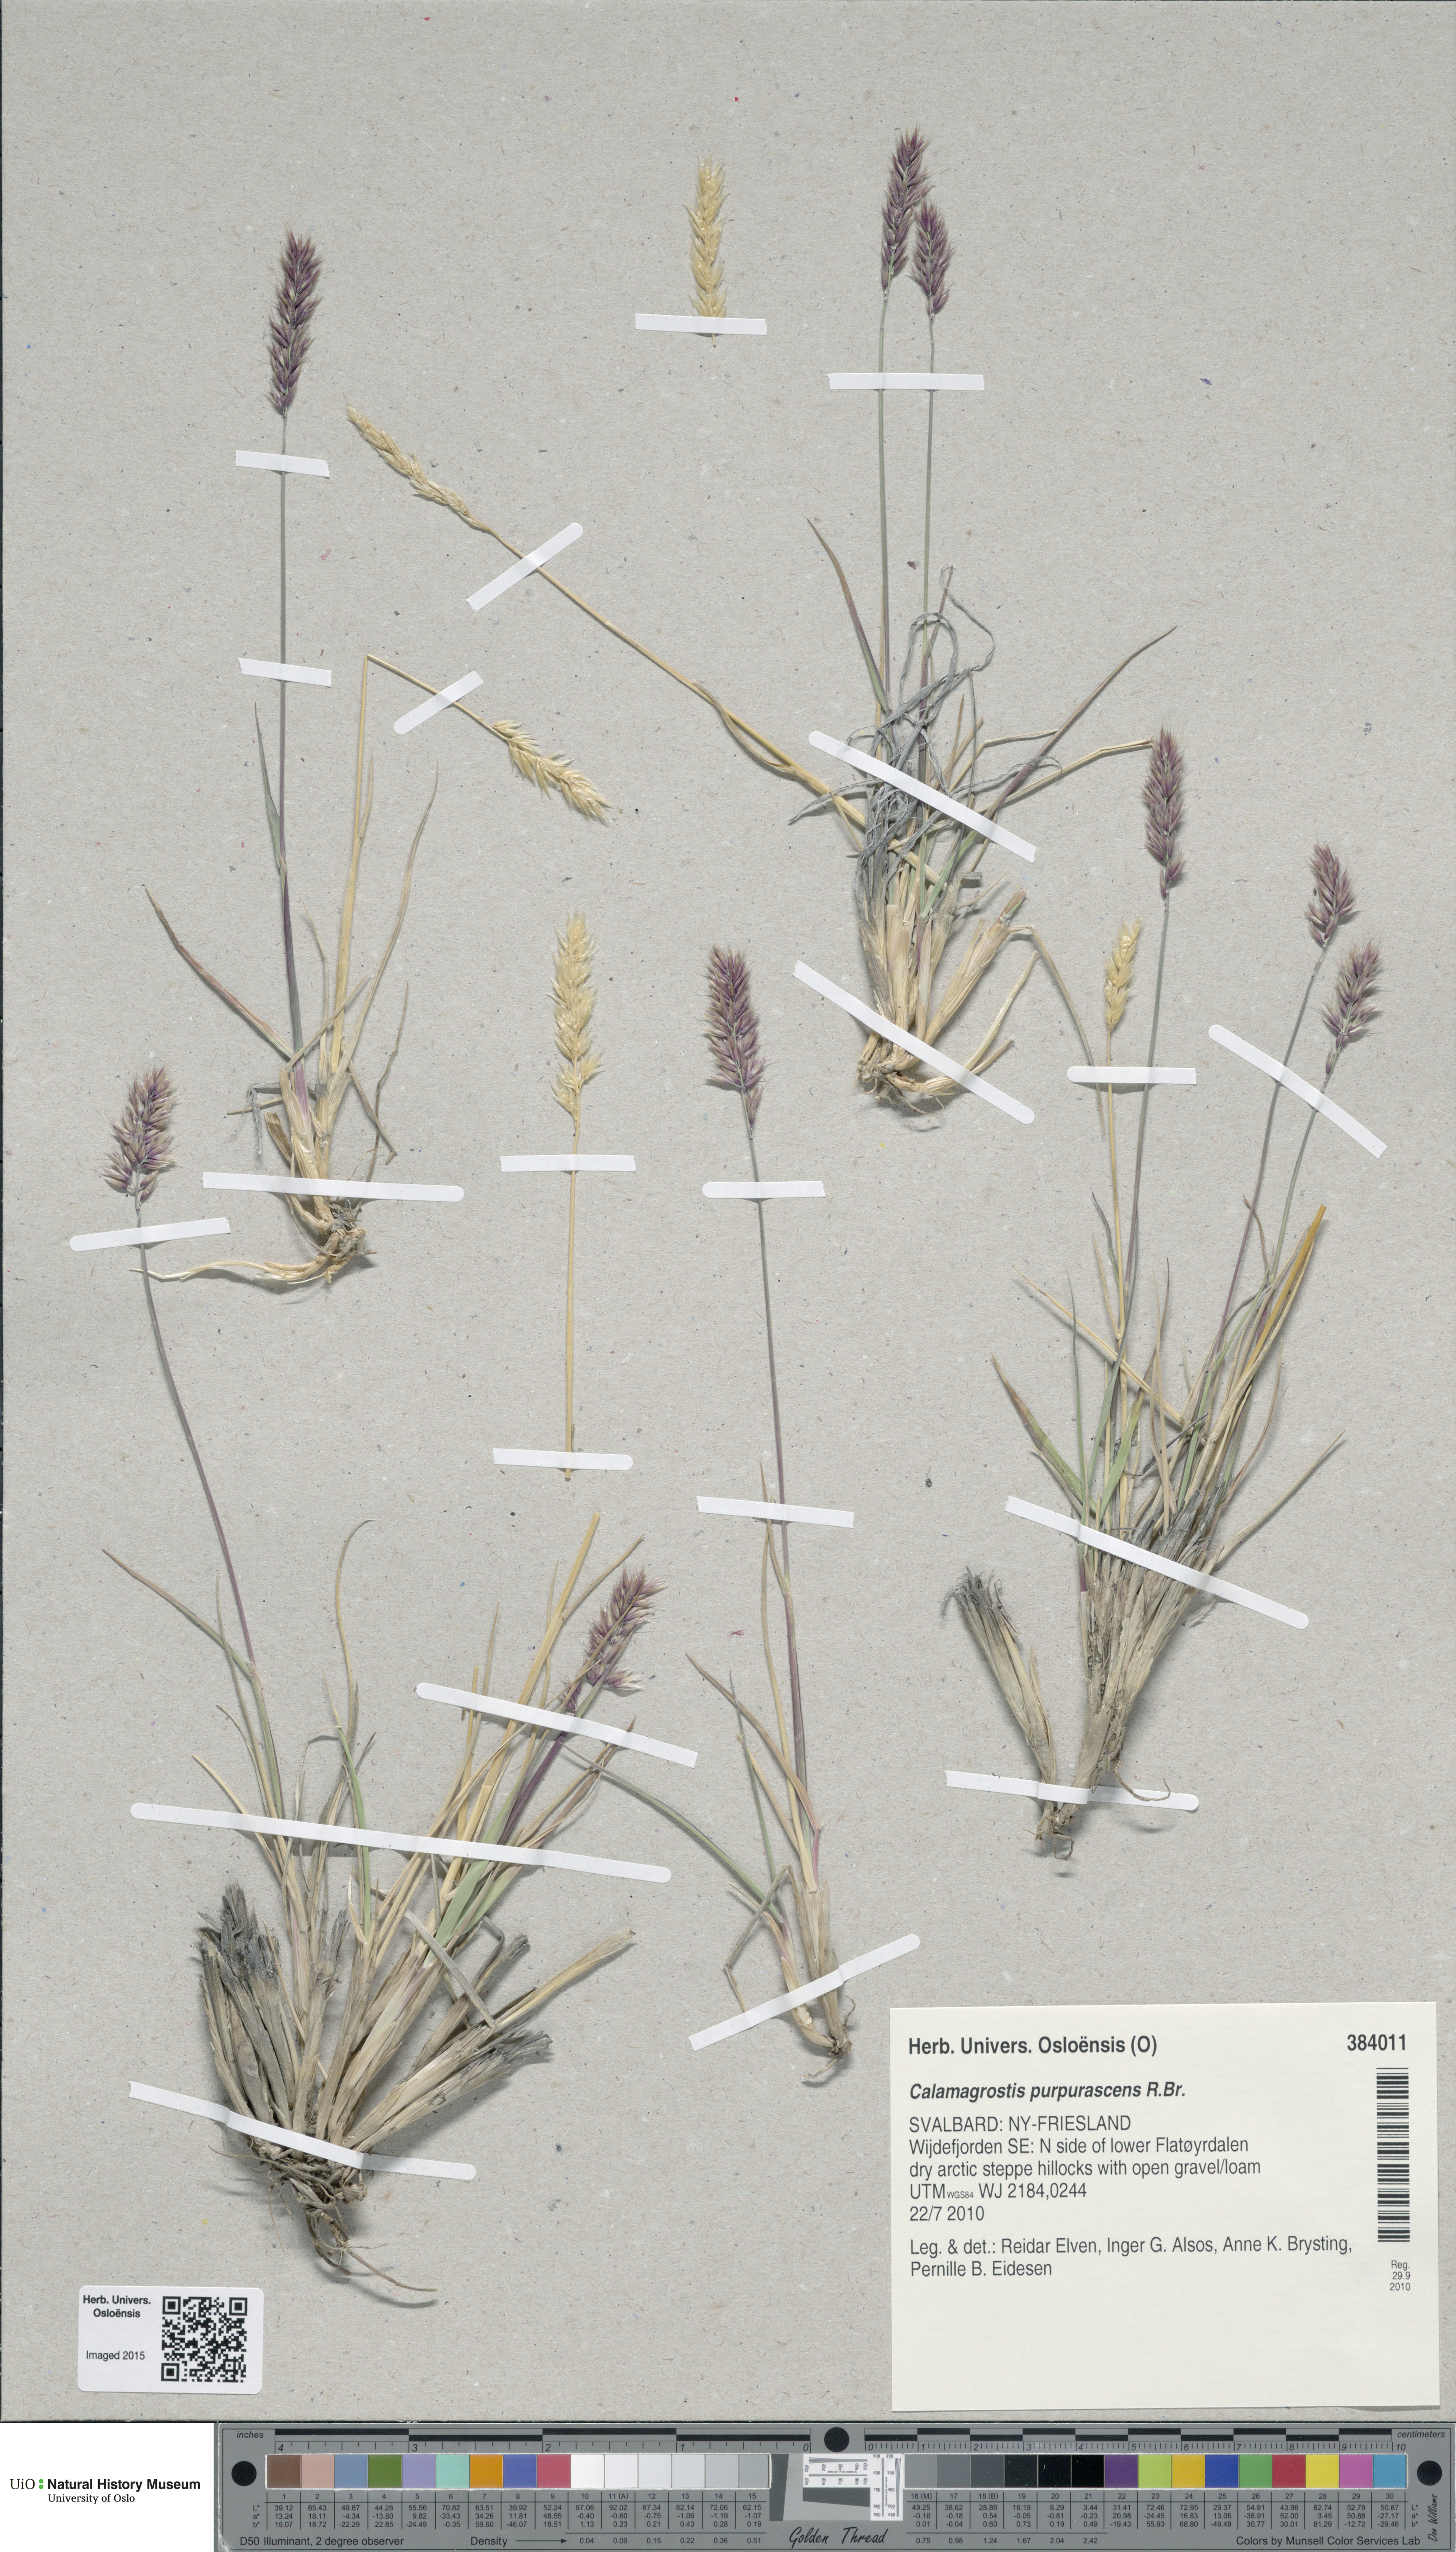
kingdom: Plantae
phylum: Tracheophyta
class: Liliopsida
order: Poales
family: Poaceae
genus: Calamagrostis
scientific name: Calamagrostis purpurascens
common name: Purple reedgrass
